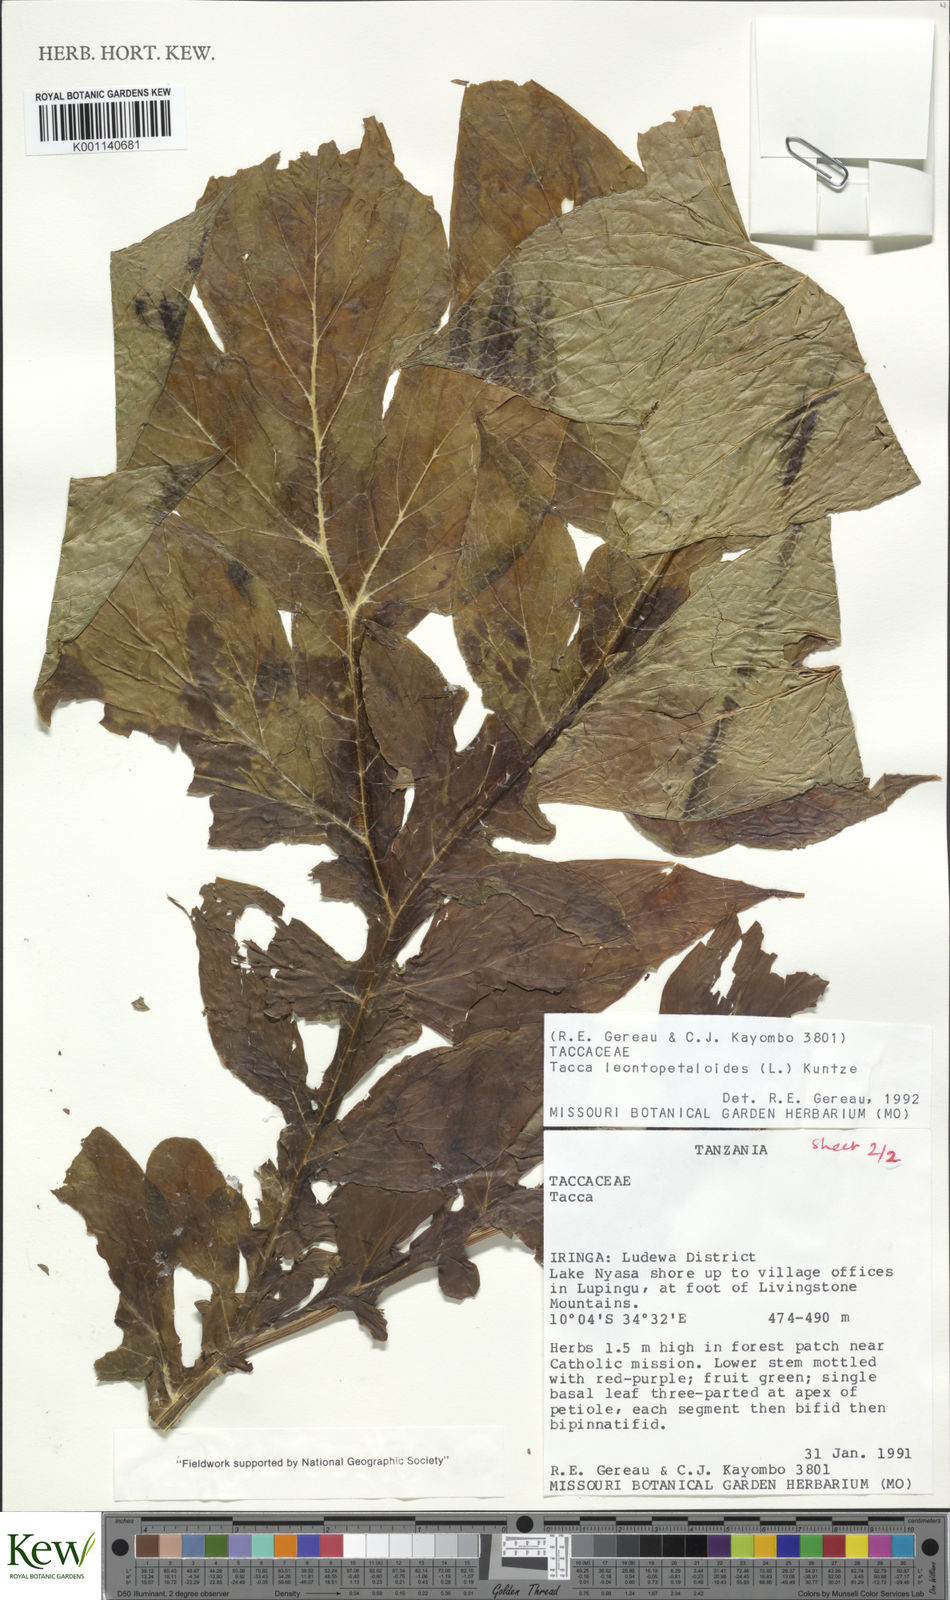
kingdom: Plantae
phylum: Tracheophyta
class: Liliopsida
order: Dioscoreales
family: Dioscoreaceae
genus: Tacca
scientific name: Tacca leontopetaloides
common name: Arrowroot
